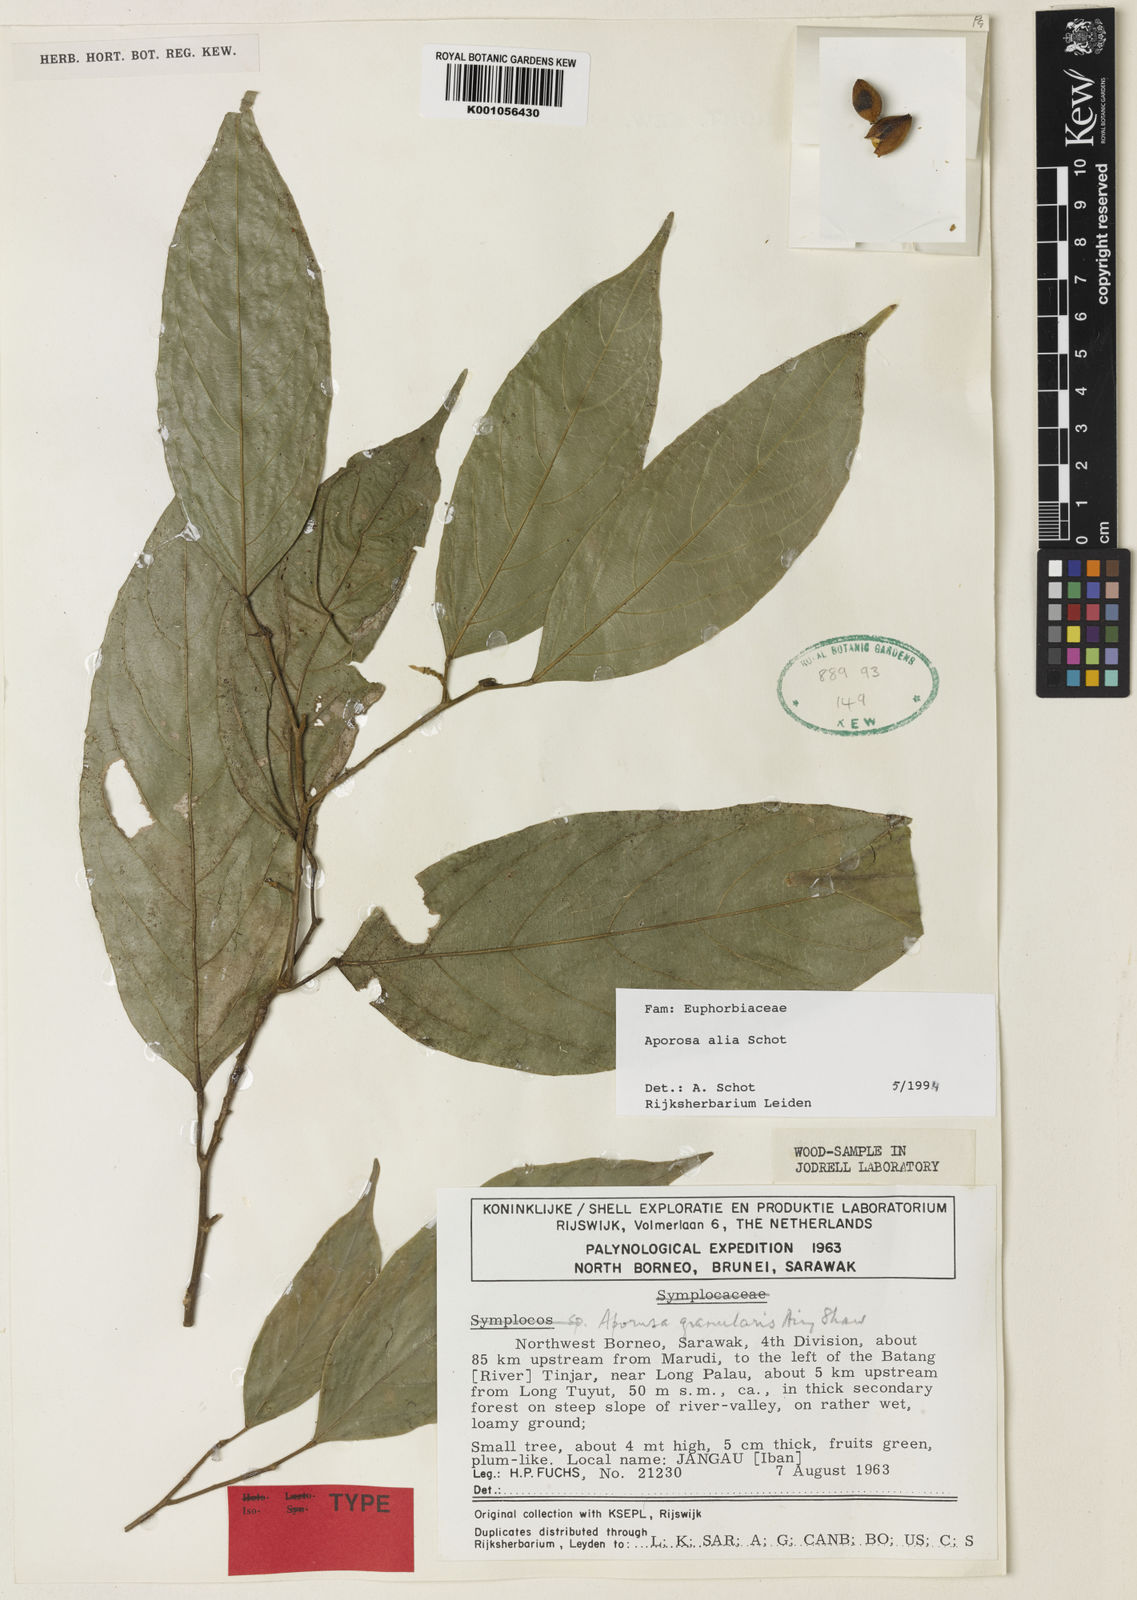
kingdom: Plantae
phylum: Tracheophyta
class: Magnoliopsida
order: Malpighiales
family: Phyllanthaceae
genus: Aporosa
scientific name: Aporosa alia
